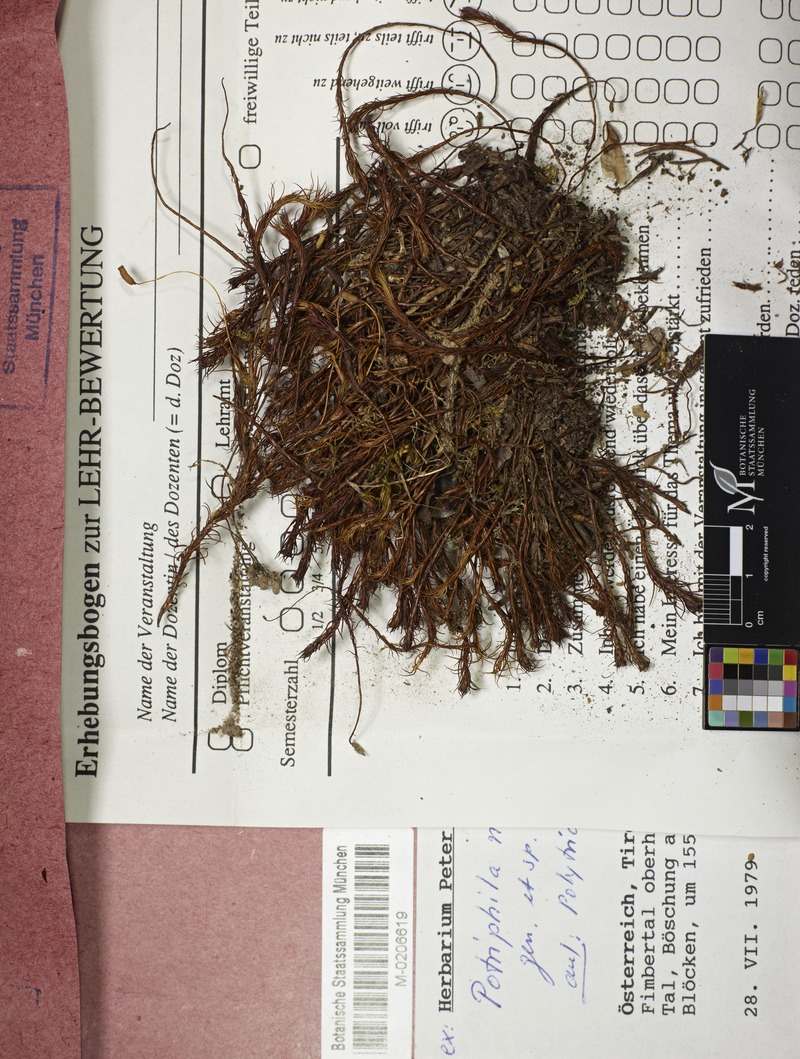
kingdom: Fungi
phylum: Ascomycota
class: Lecanoromycetes
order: Ostropales
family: Odontotremataceae
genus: Potriphila
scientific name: Potriphila navicularis
